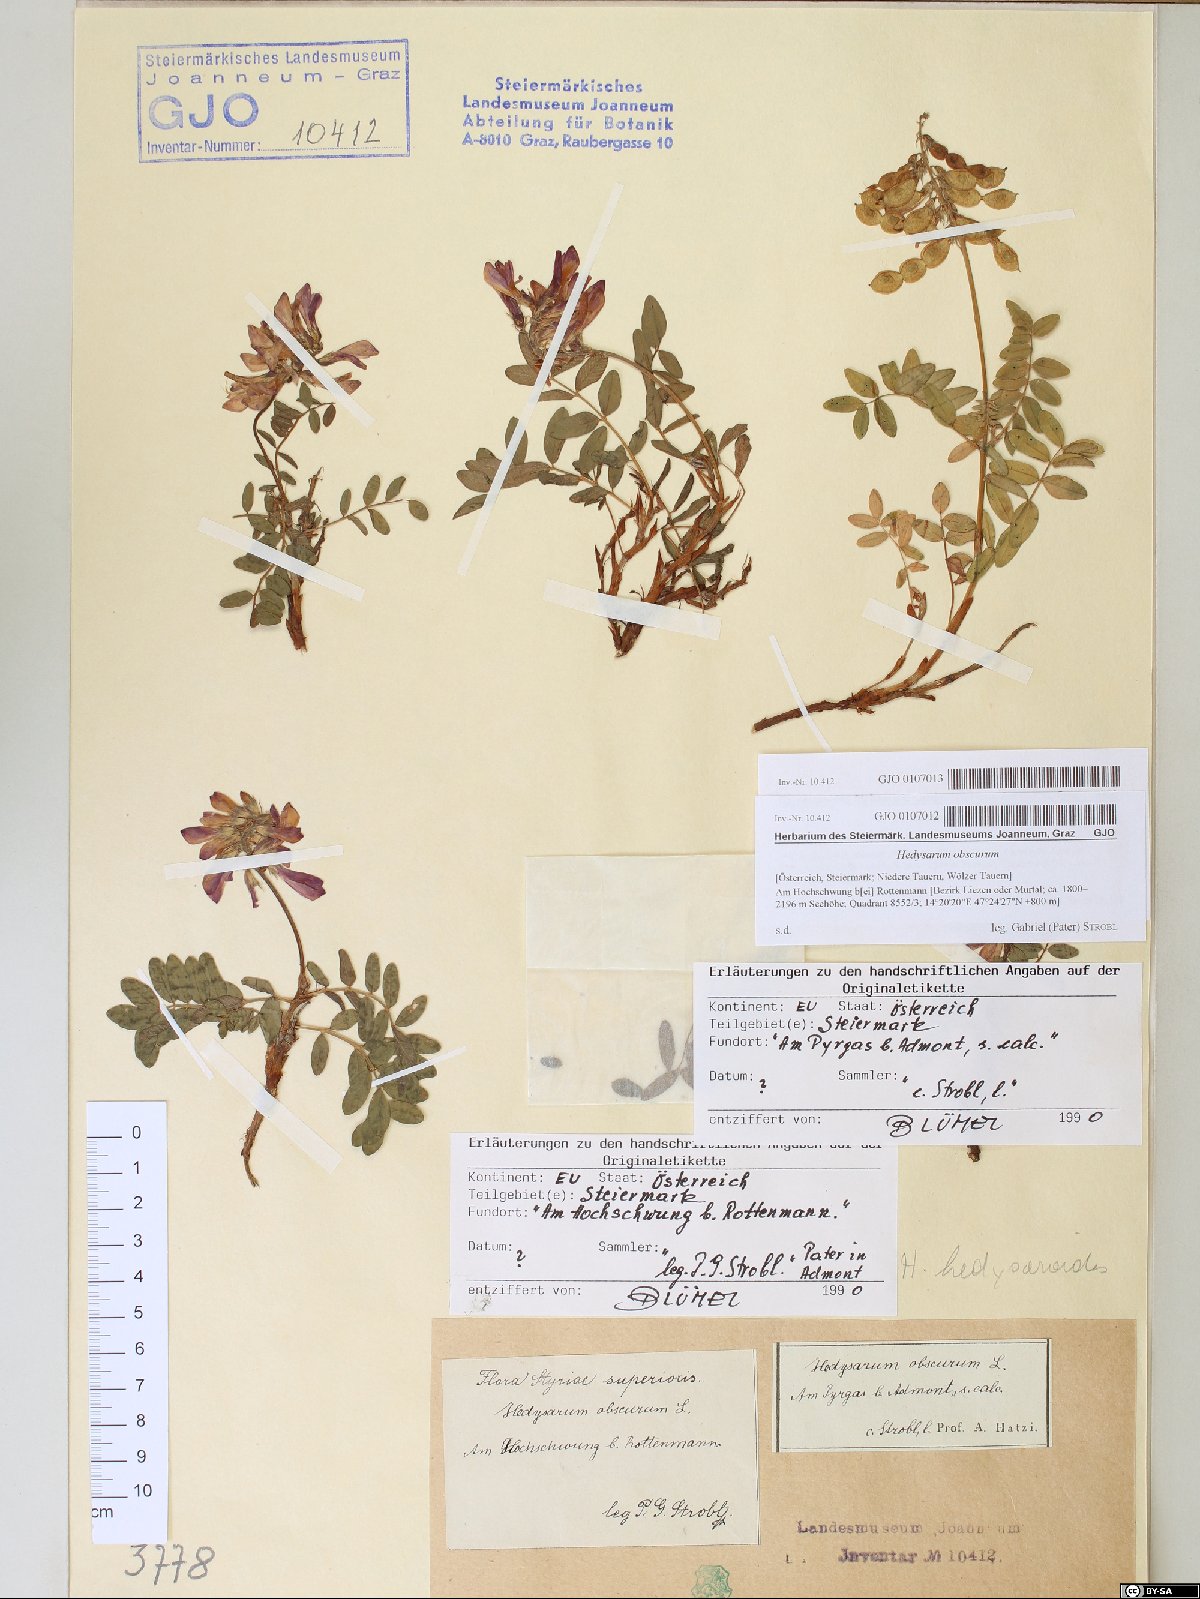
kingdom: Plantae
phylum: Tracheophyta
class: Magnoliopsida
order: Fabales
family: Fabaceae
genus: Hedysarum
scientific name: Hedysarum hedysaroides
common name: Alpine french-honeysuckle
